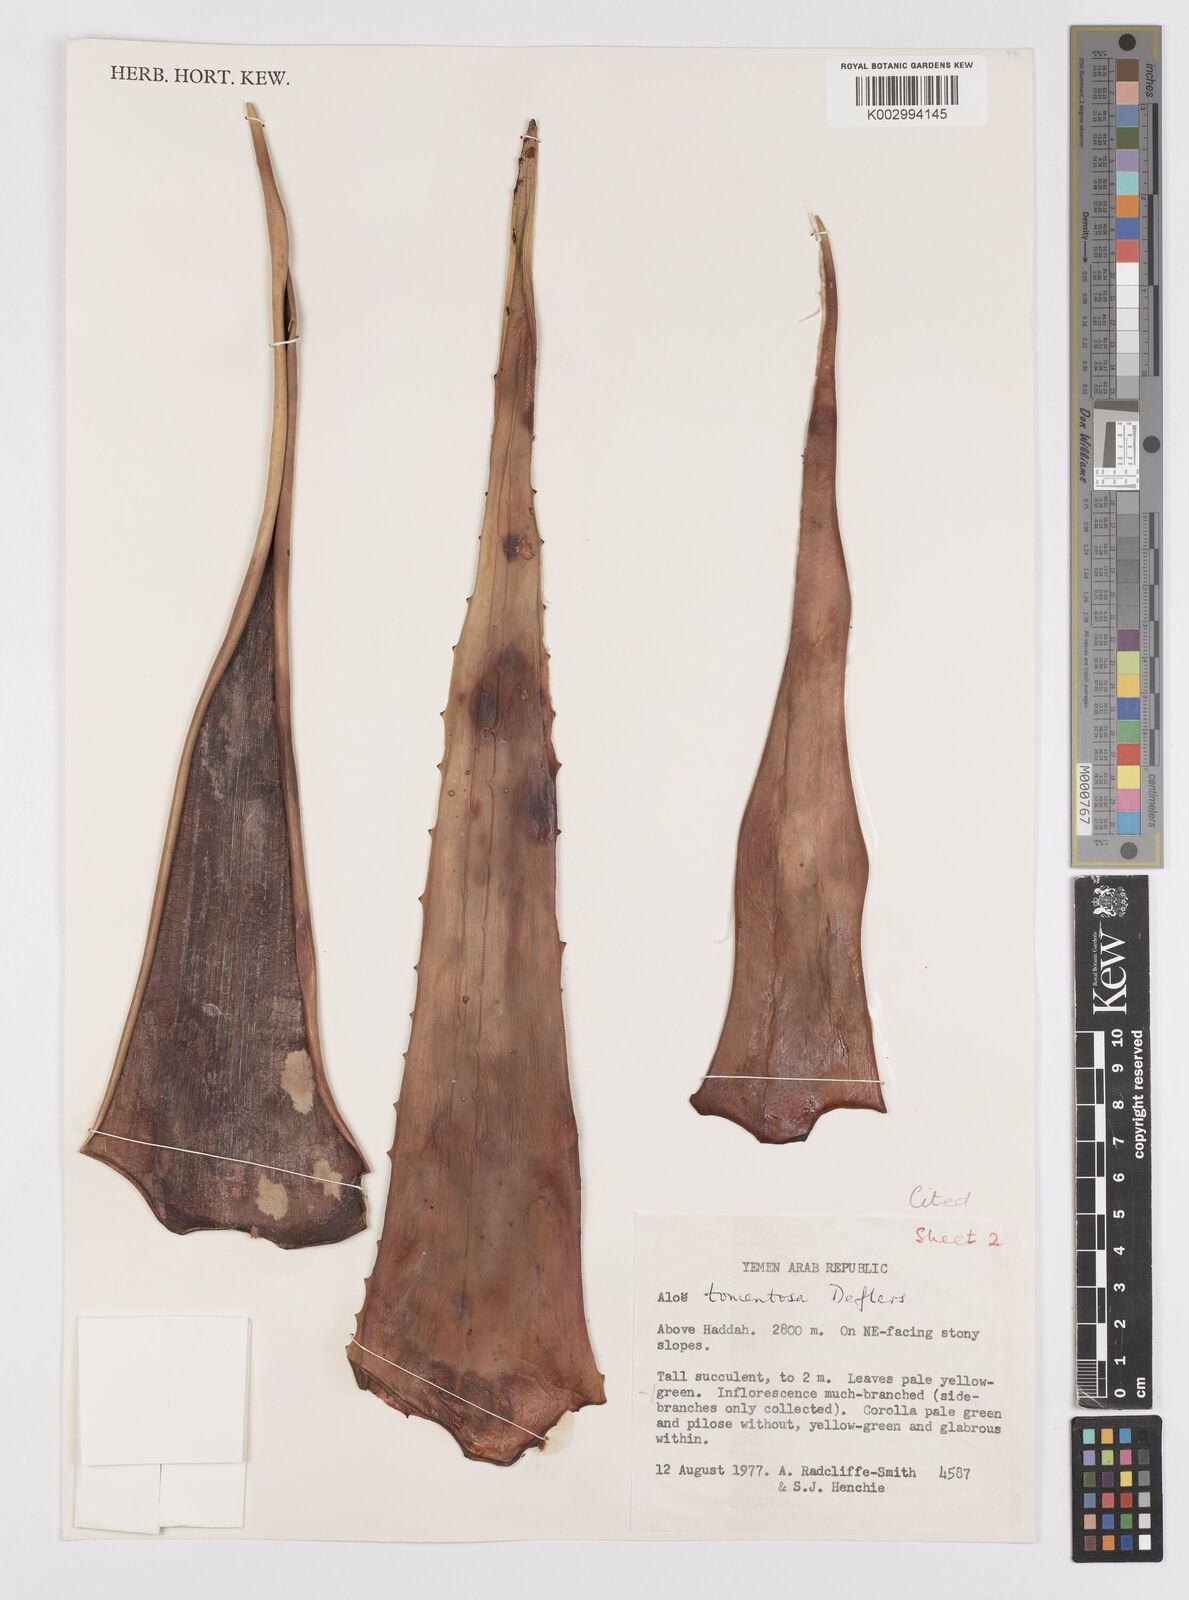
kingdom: Plantae
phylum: Tracheophyta
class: Liliopsida
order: Asparagales
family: Asphodelaceae
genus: Aloe
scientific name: Aloe tomentosa
